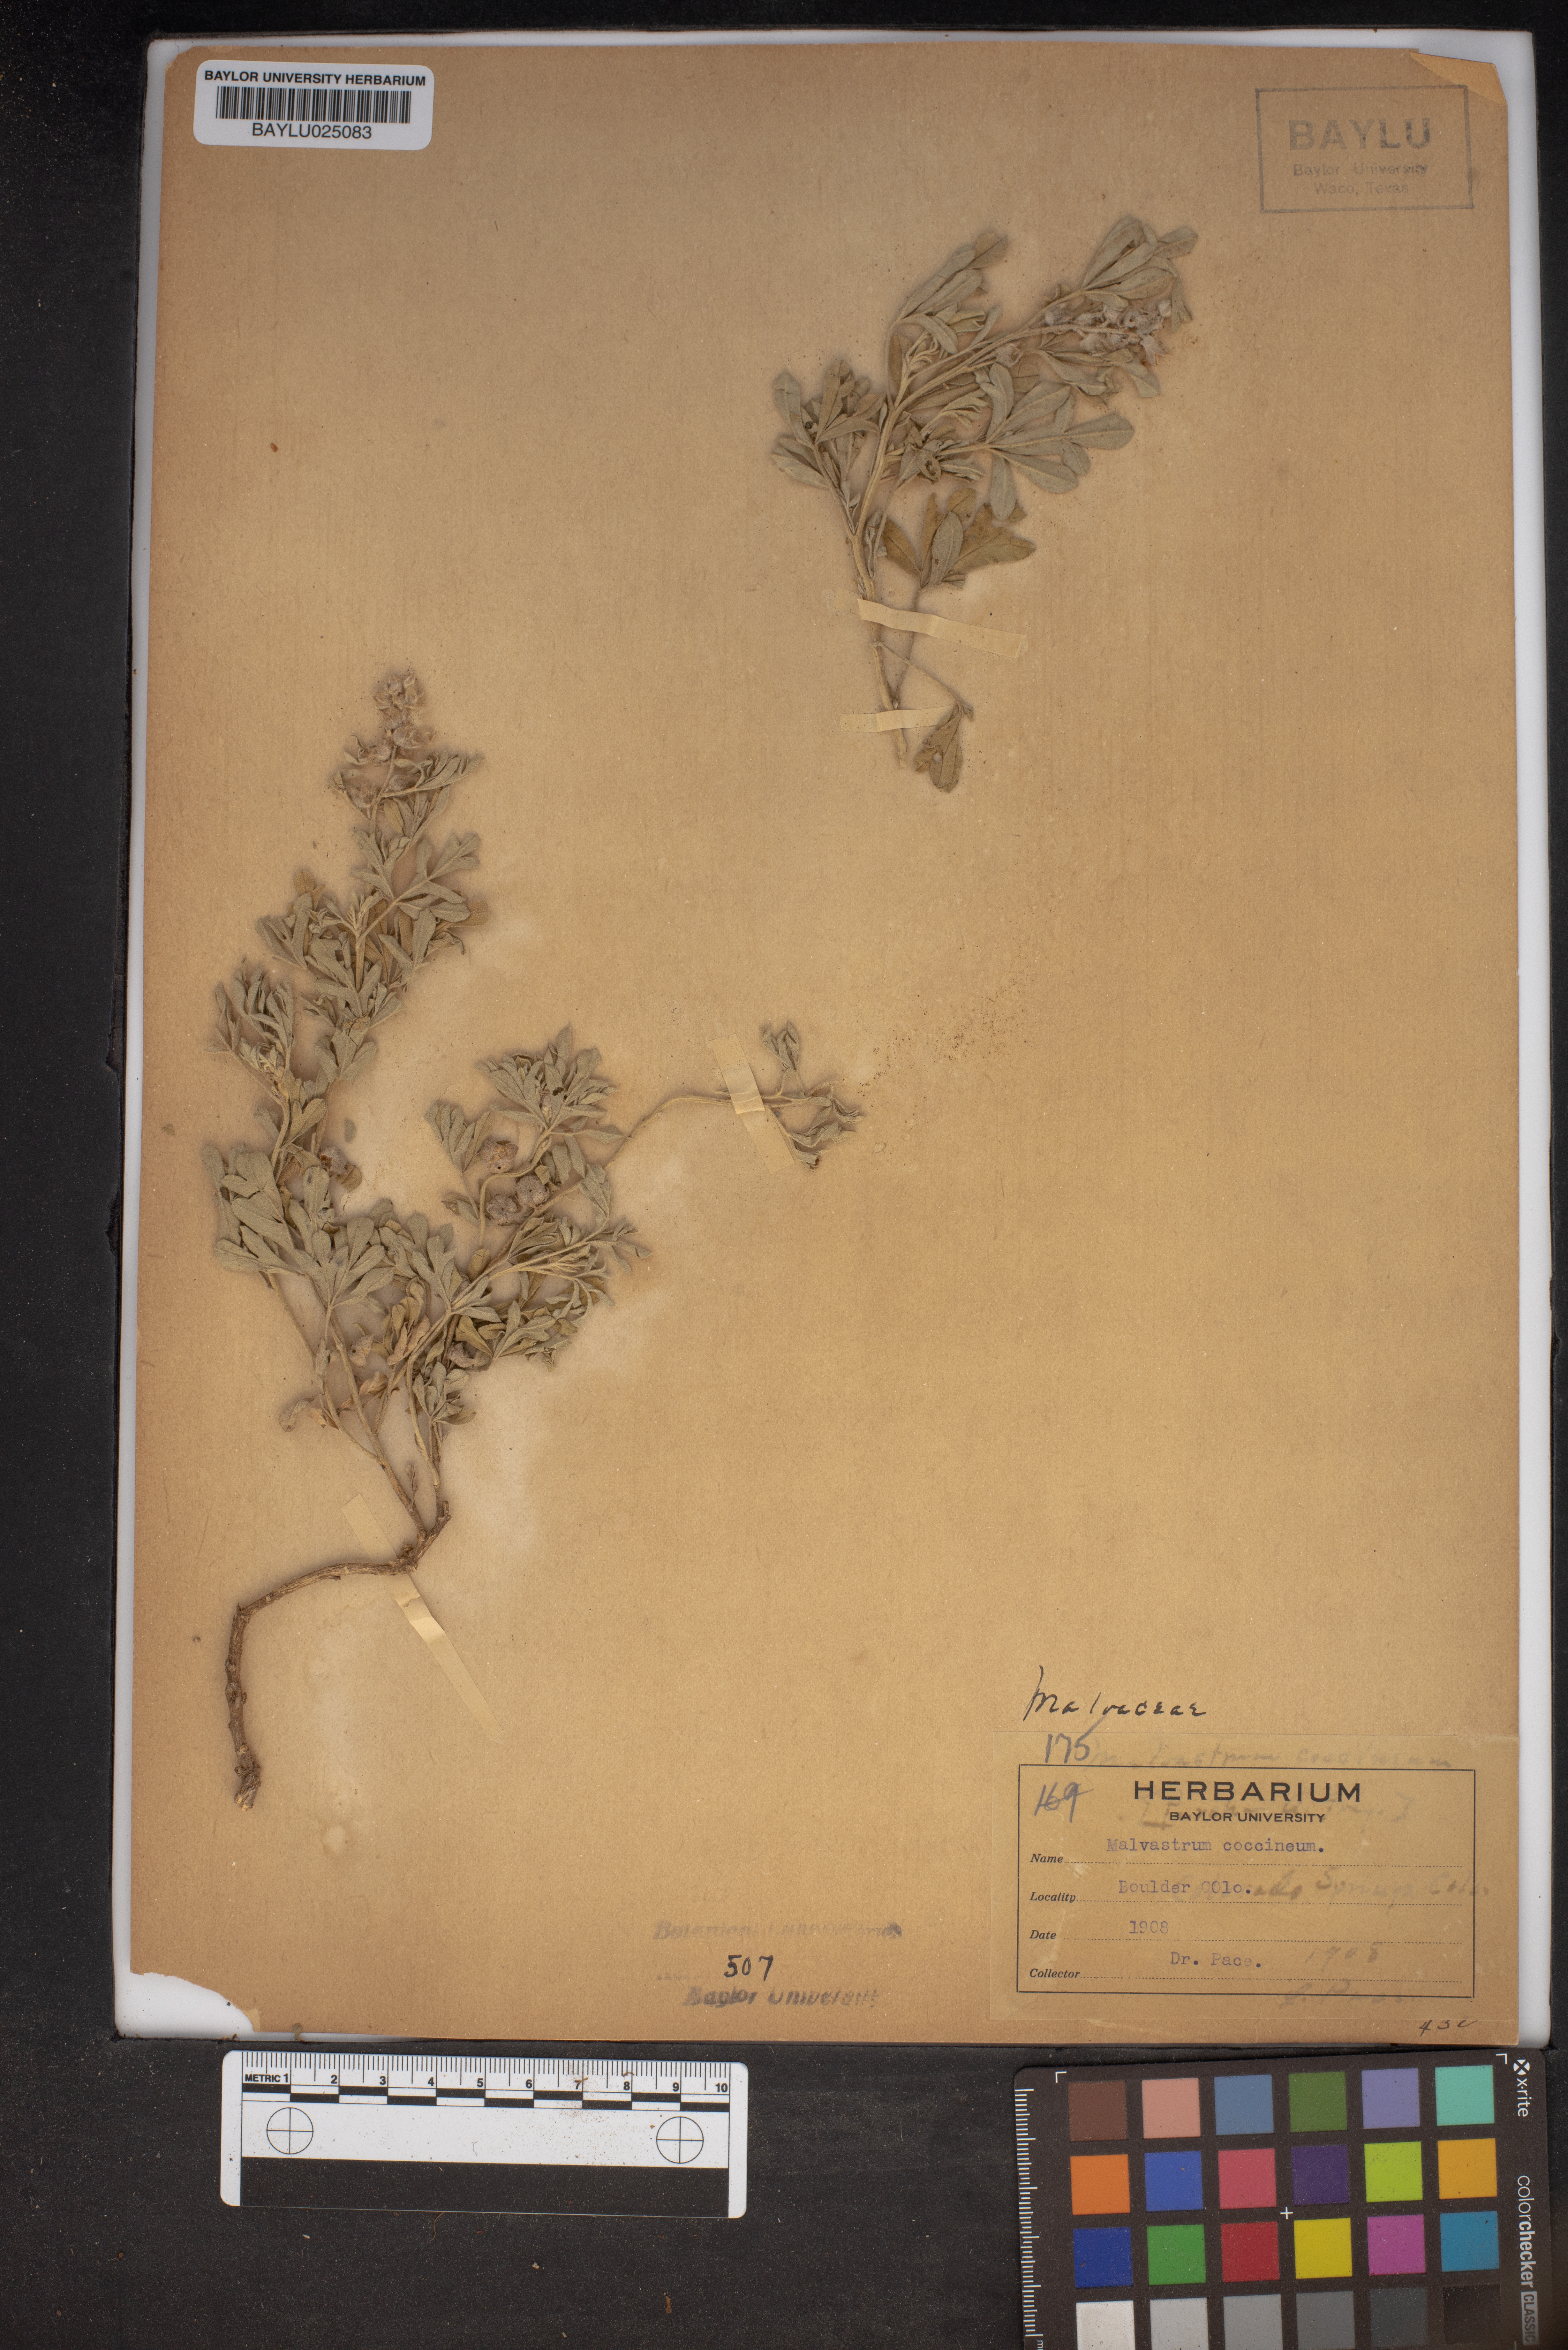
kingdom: Plantae
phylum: Tracheophyta
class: Magnoliopsida
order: Malvales
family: Malvaceae
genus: Sphaeralcea
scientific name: Sphaeralcea coccinea
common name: Moss-rose
